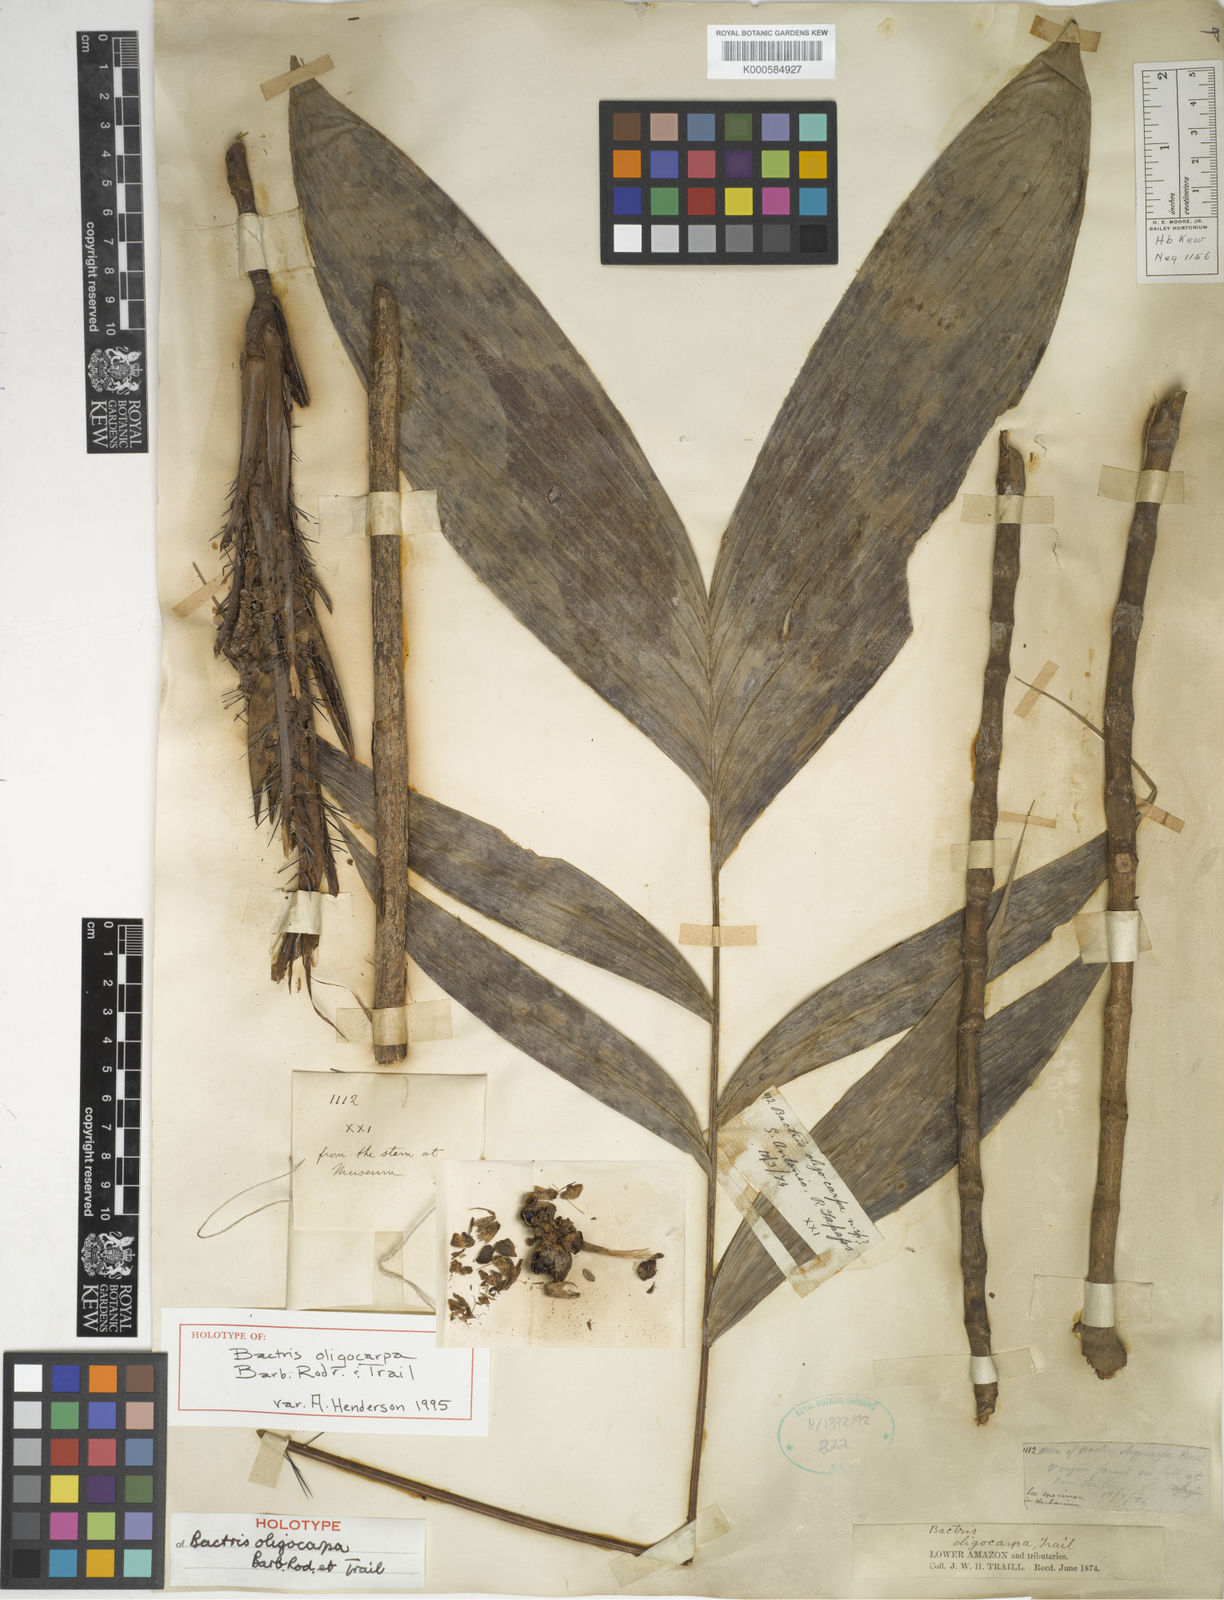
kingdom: Plantae
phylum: Tracheophyta
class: Liliopsida
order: Arecales
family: Arecaceae
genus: Bactris
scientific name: Bactris oligocarpa
